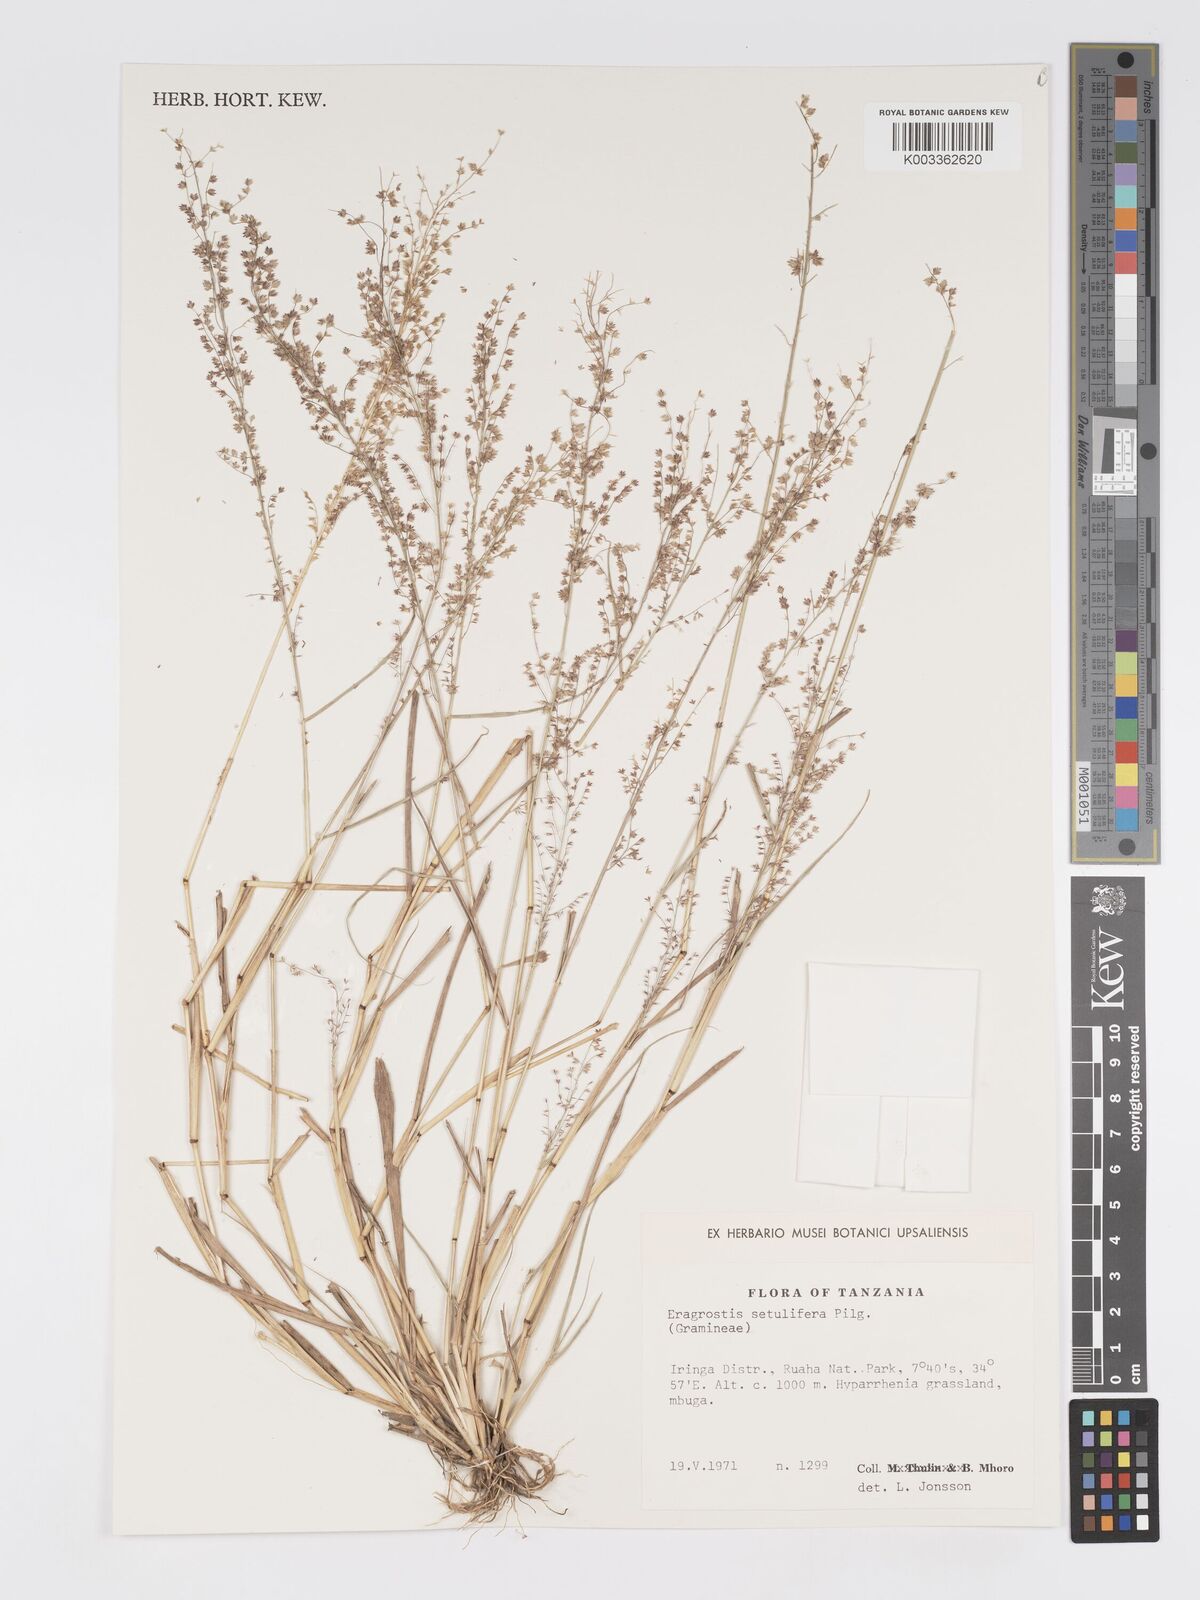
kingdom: Plantae
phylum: Tracheophyta
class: Liliopsida
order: Poales
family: Poaceae
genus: Eragrostis
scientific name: Eragrostis setulifera
